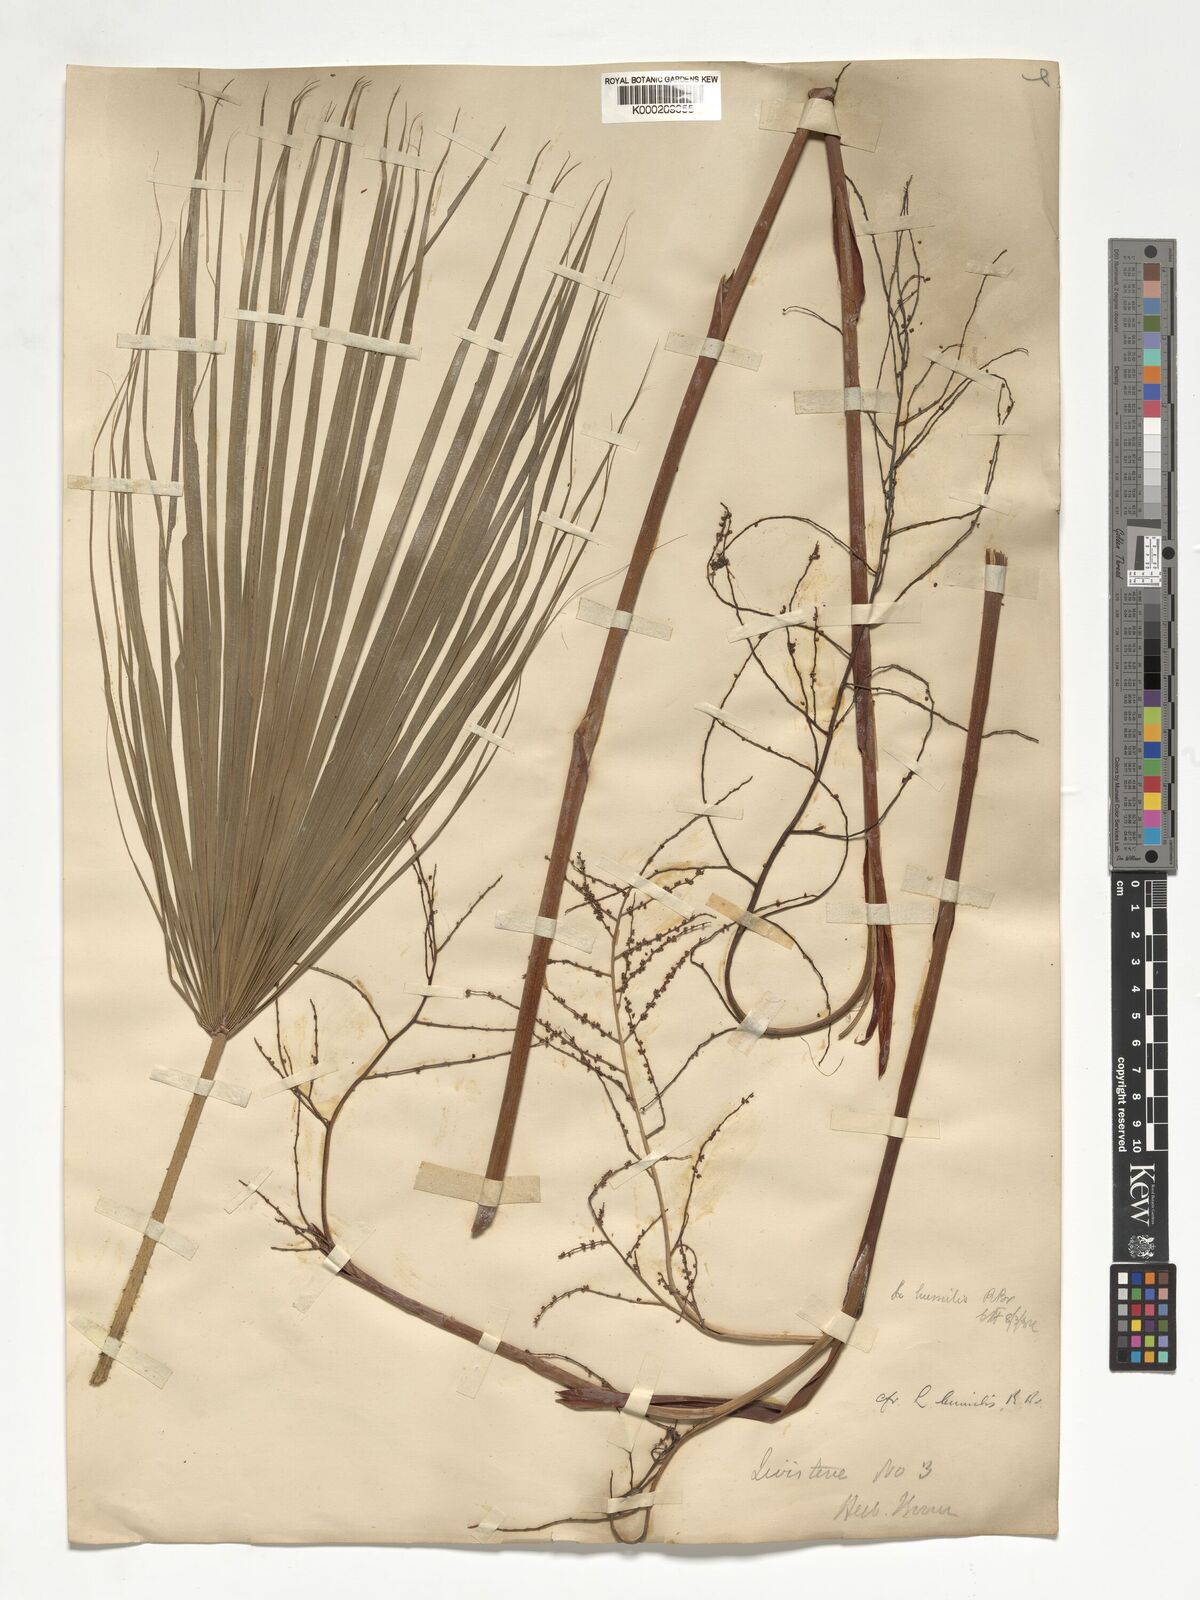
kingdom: Plantae
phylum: Tracheophyta
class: Liliopsida
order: Arecales
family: Arecaceae
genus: Livistona
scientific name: Livistona humilis
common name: Cabbage palm
